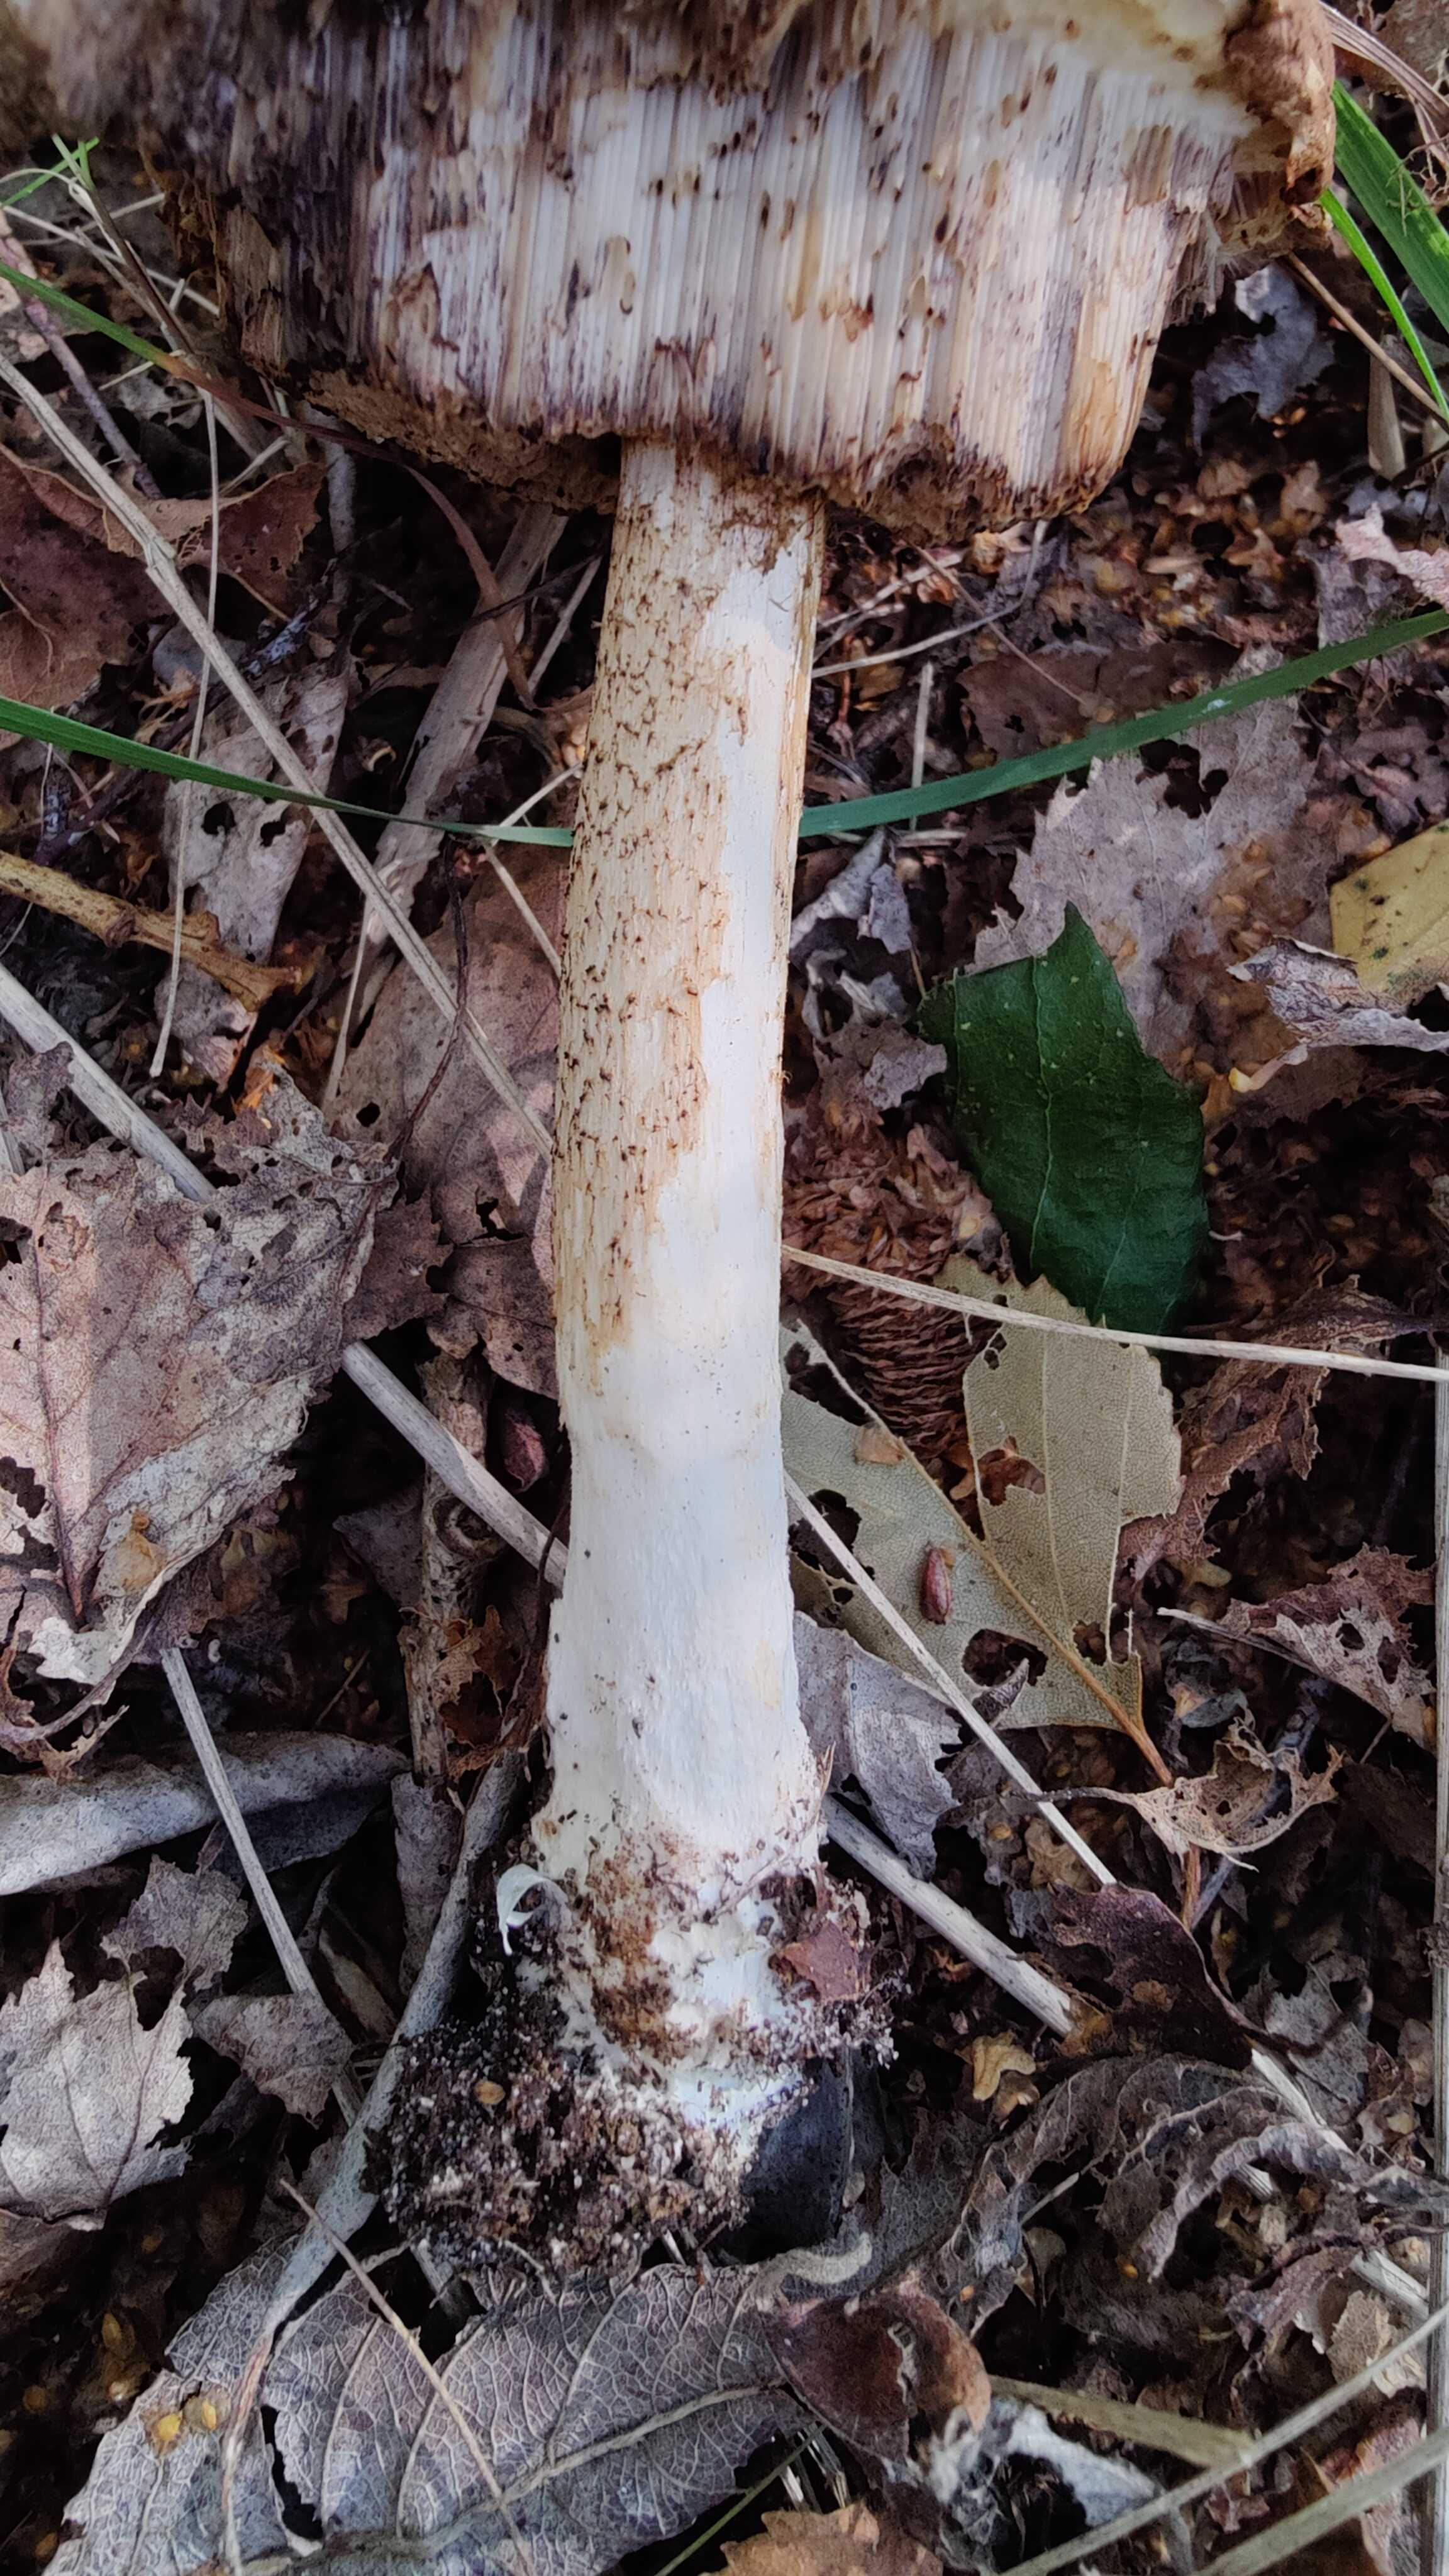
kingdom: Fungi
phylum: Basidiomycota
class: Agaricomycetes
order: Boletales
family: Boletaceae
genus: Leccinum
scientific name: Leccinum
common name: skælrørhat
